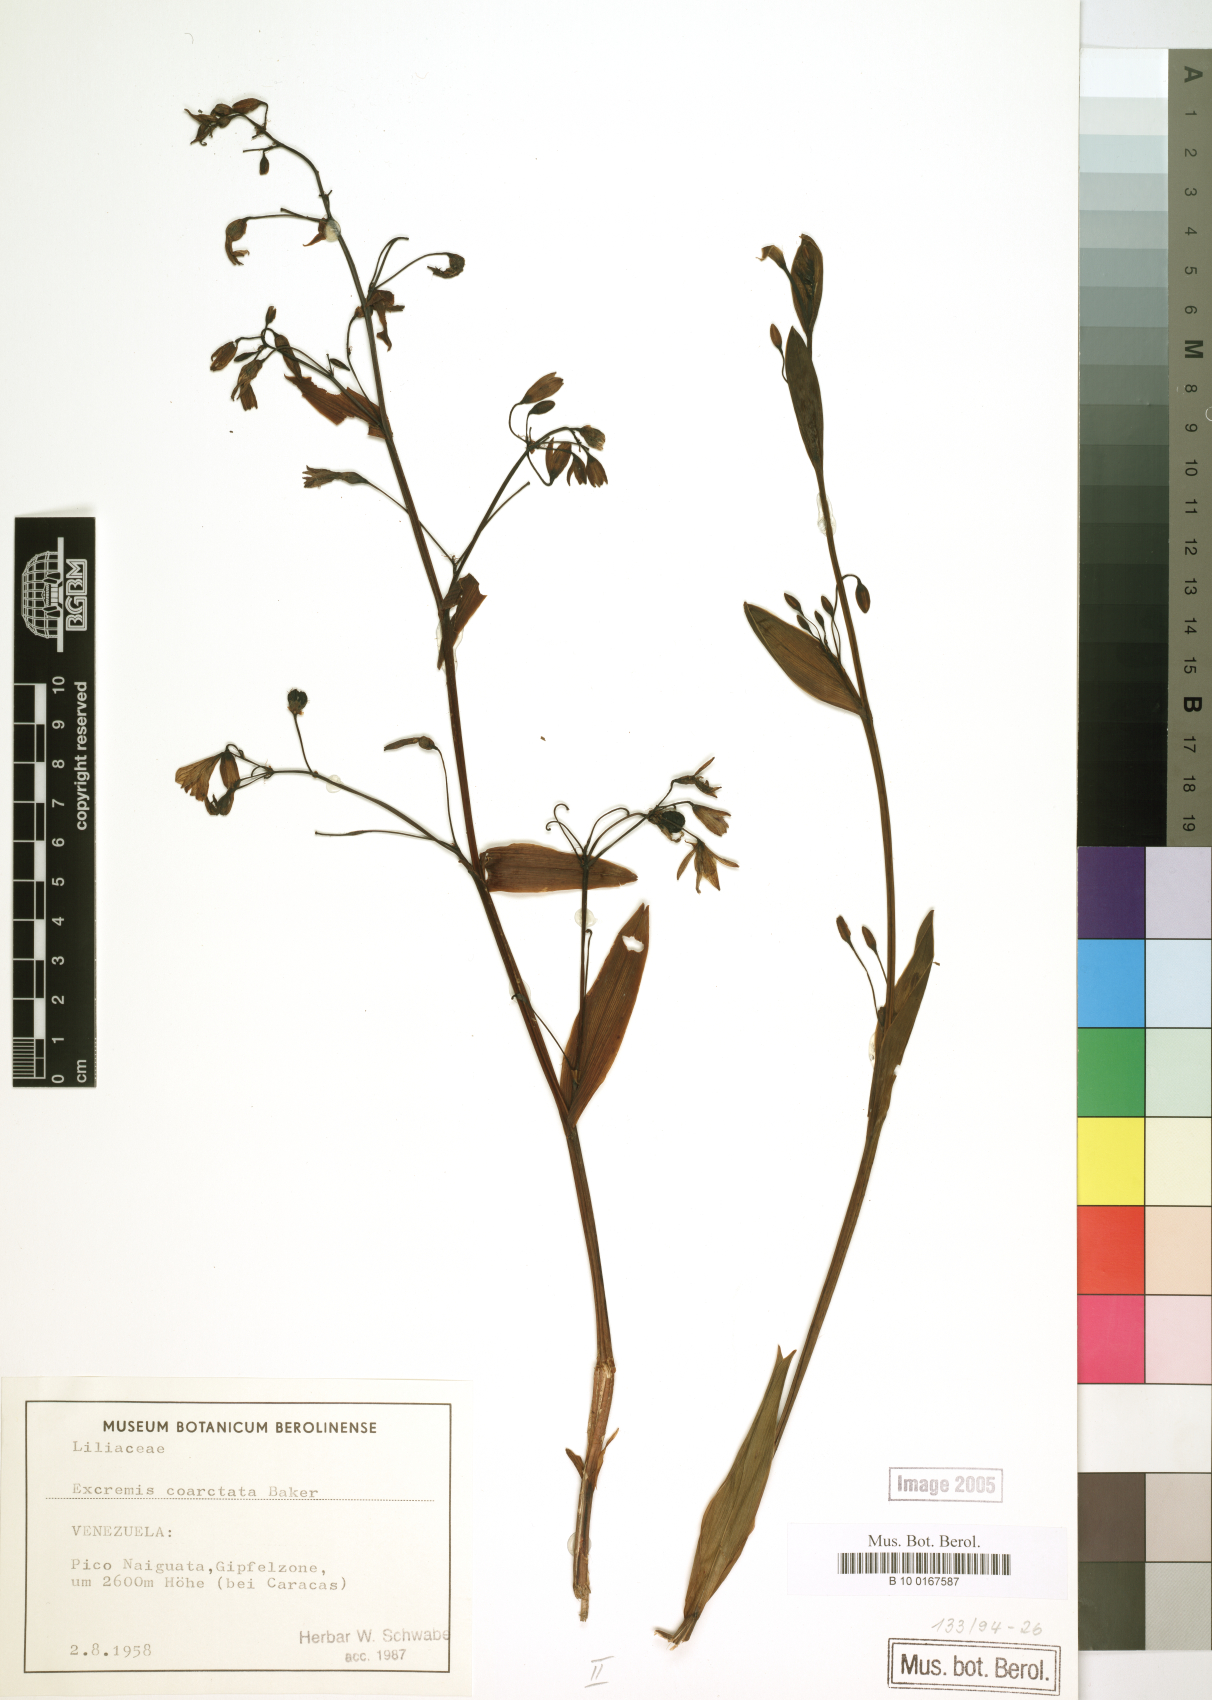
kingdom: Plantae
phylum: Tracheophyta
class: Liliopsida
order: Asparagales
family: Asphodelaceae
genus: Excremis
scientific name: Excremis coarctata
